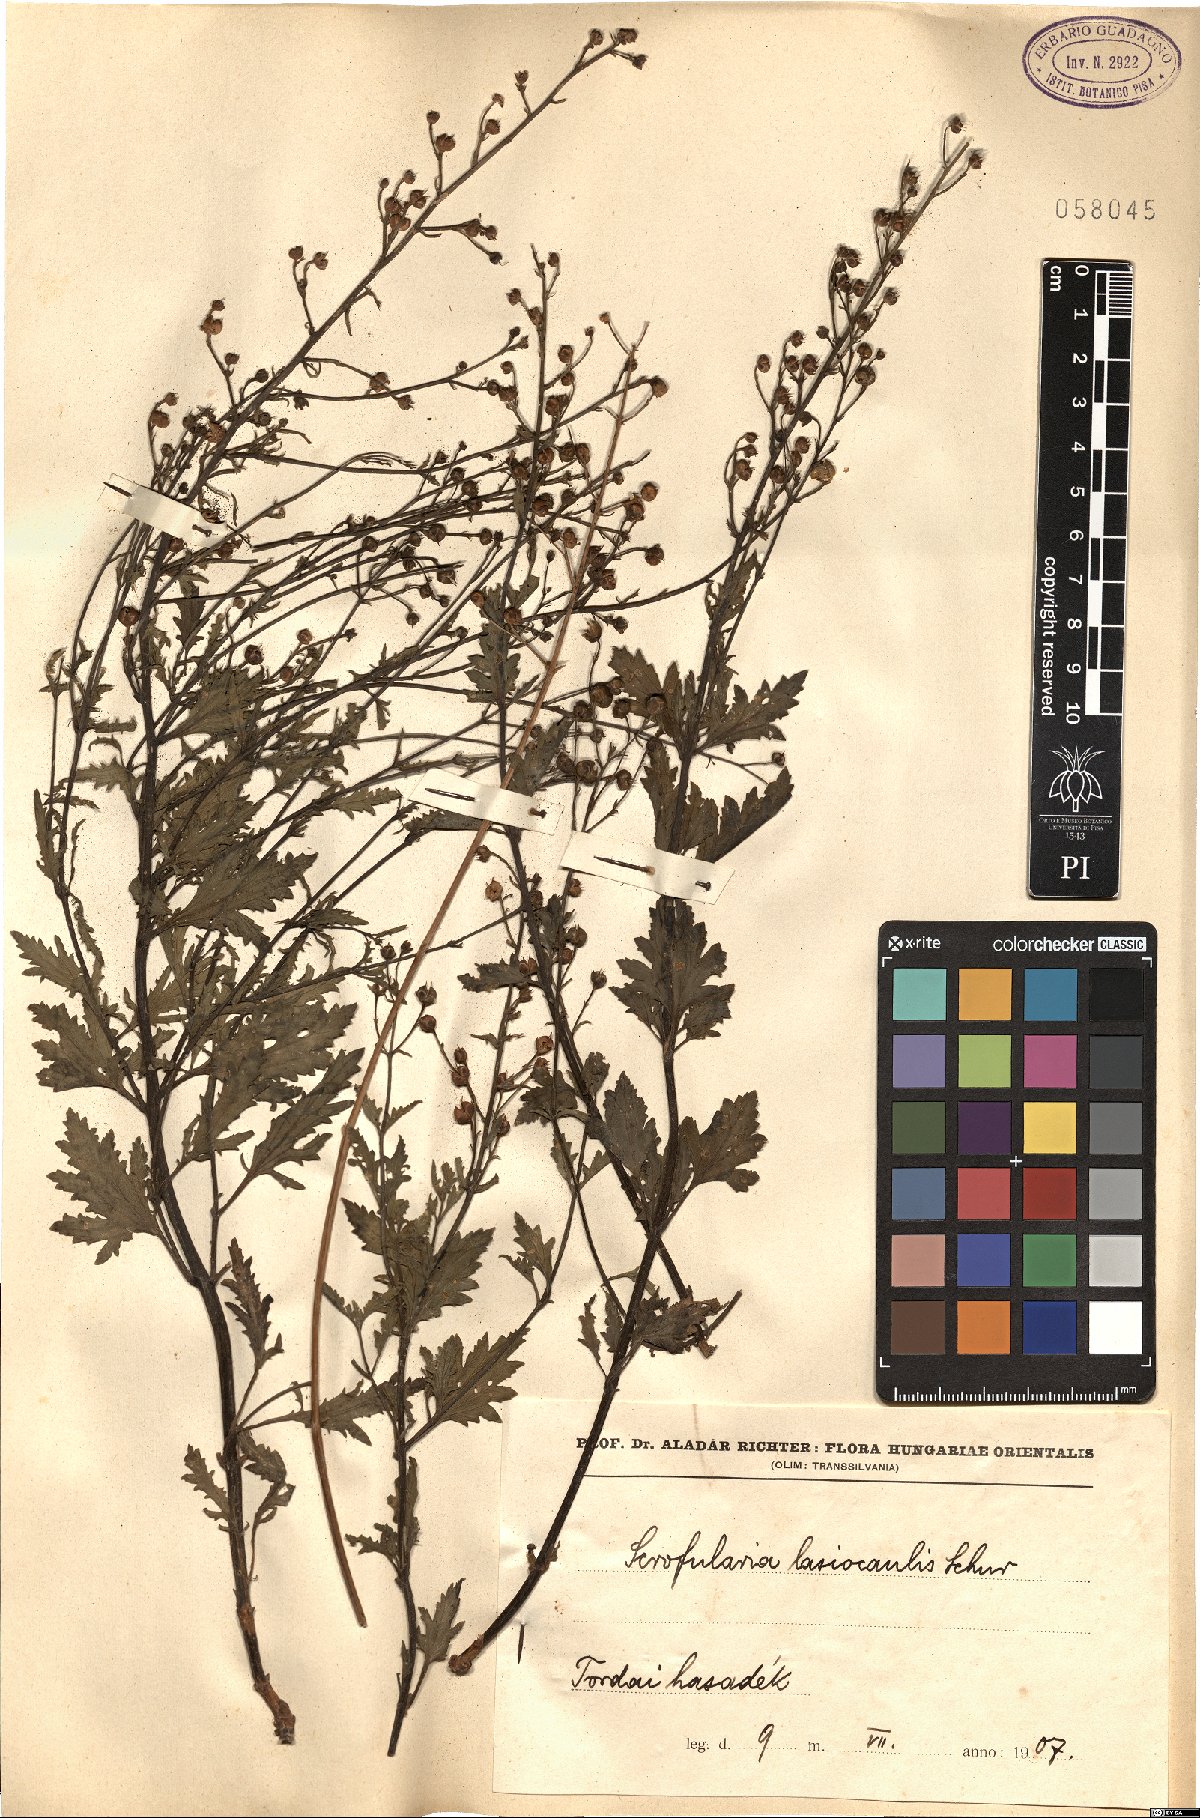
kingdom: Plantae
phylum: Tracheophyta
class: Magnoliopsida
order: Lamiales
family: Scrophulariaceae
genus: Scrophularia
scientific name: Scrophularia rupestris
